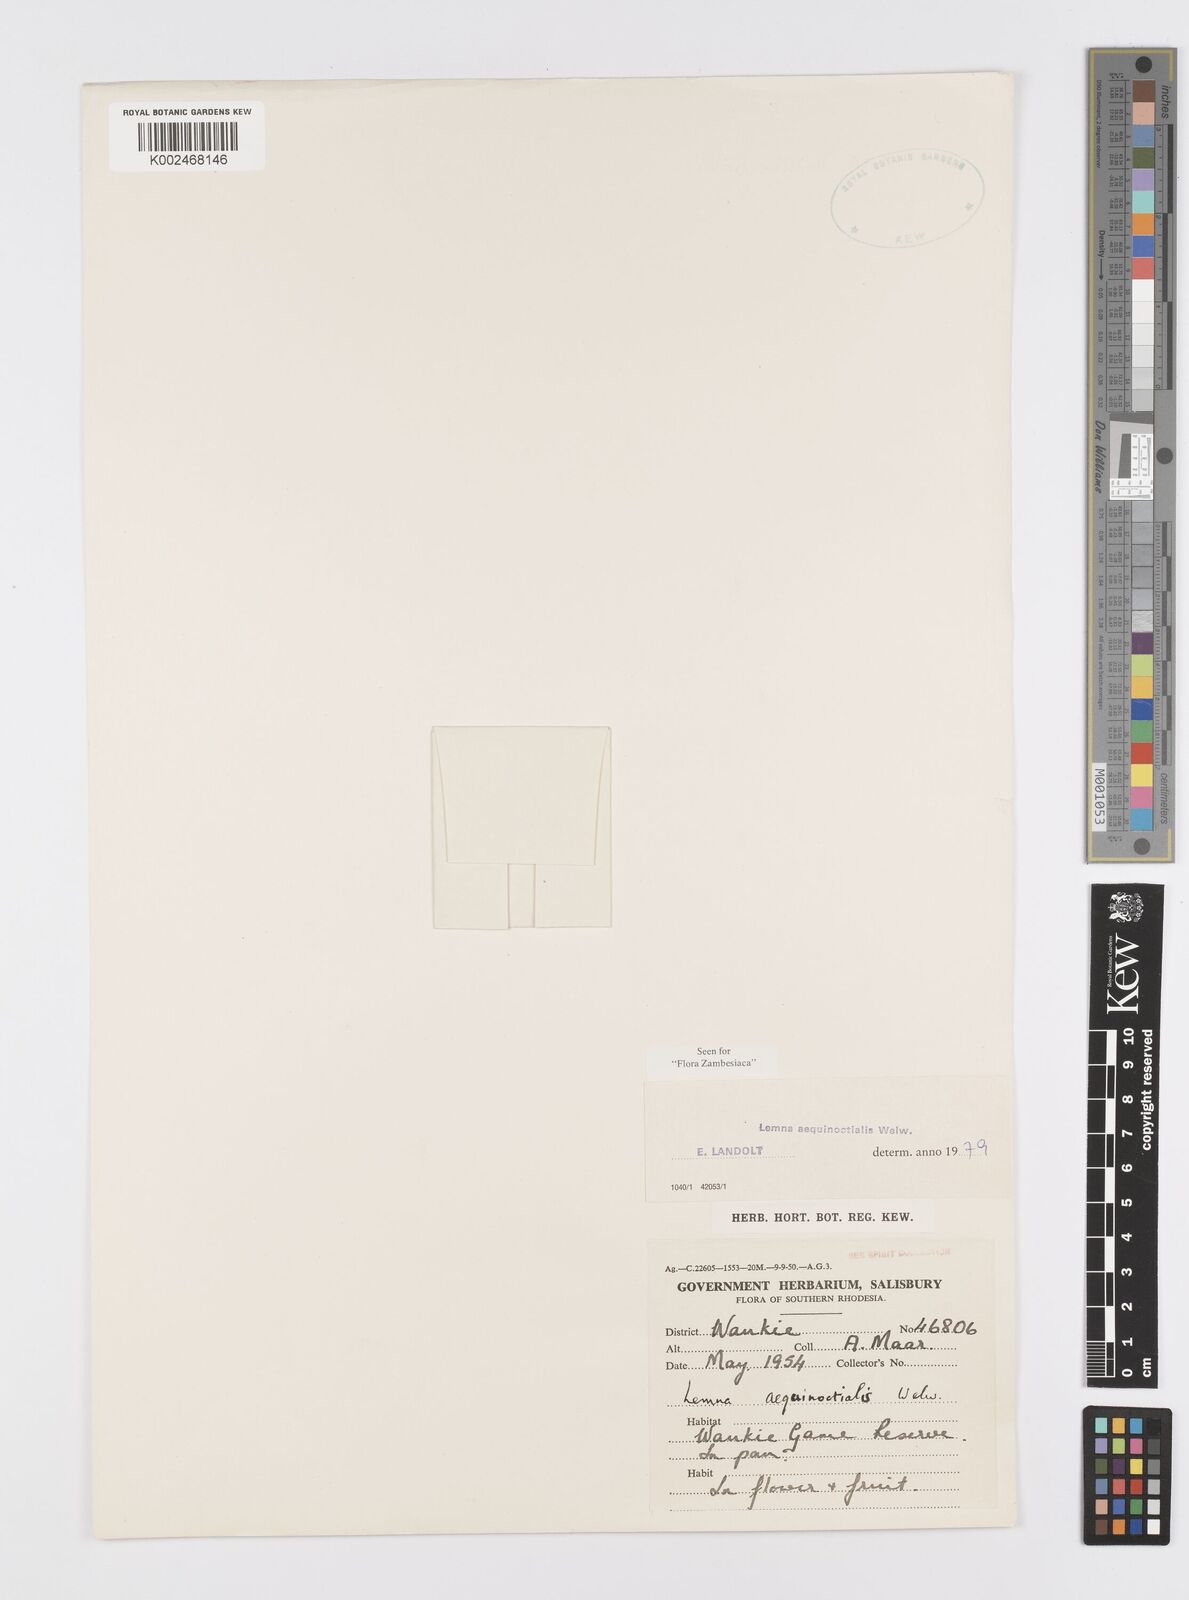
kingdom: Plantae
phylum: Tracheophyta
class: Liliopsida
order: Alismatales
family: Araceae
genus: Lemna
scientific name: Lemna aequinoctialis
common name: Duckweed
